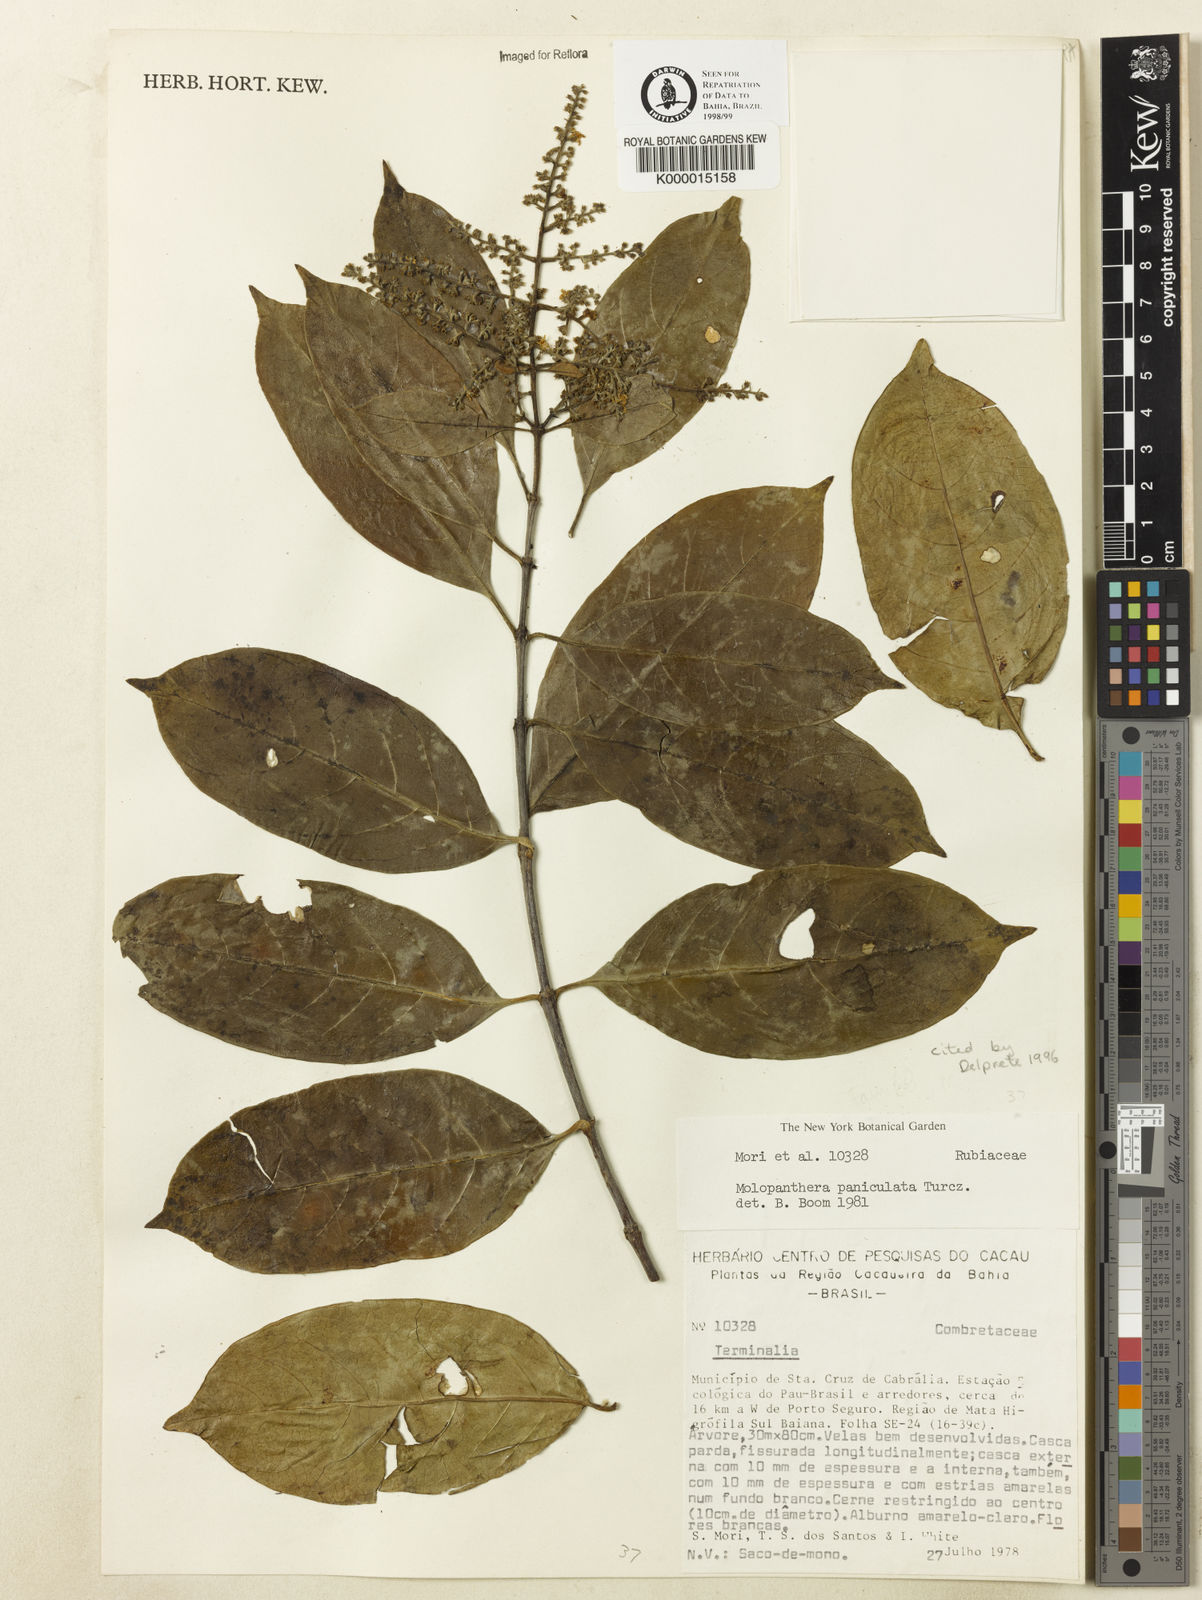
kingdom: Plantae
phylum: Tracheophyta
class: Magnoliopsida
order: Gentianales
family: Rubiaceae
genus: Molopanthera
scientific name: Molopanthera paniculata
